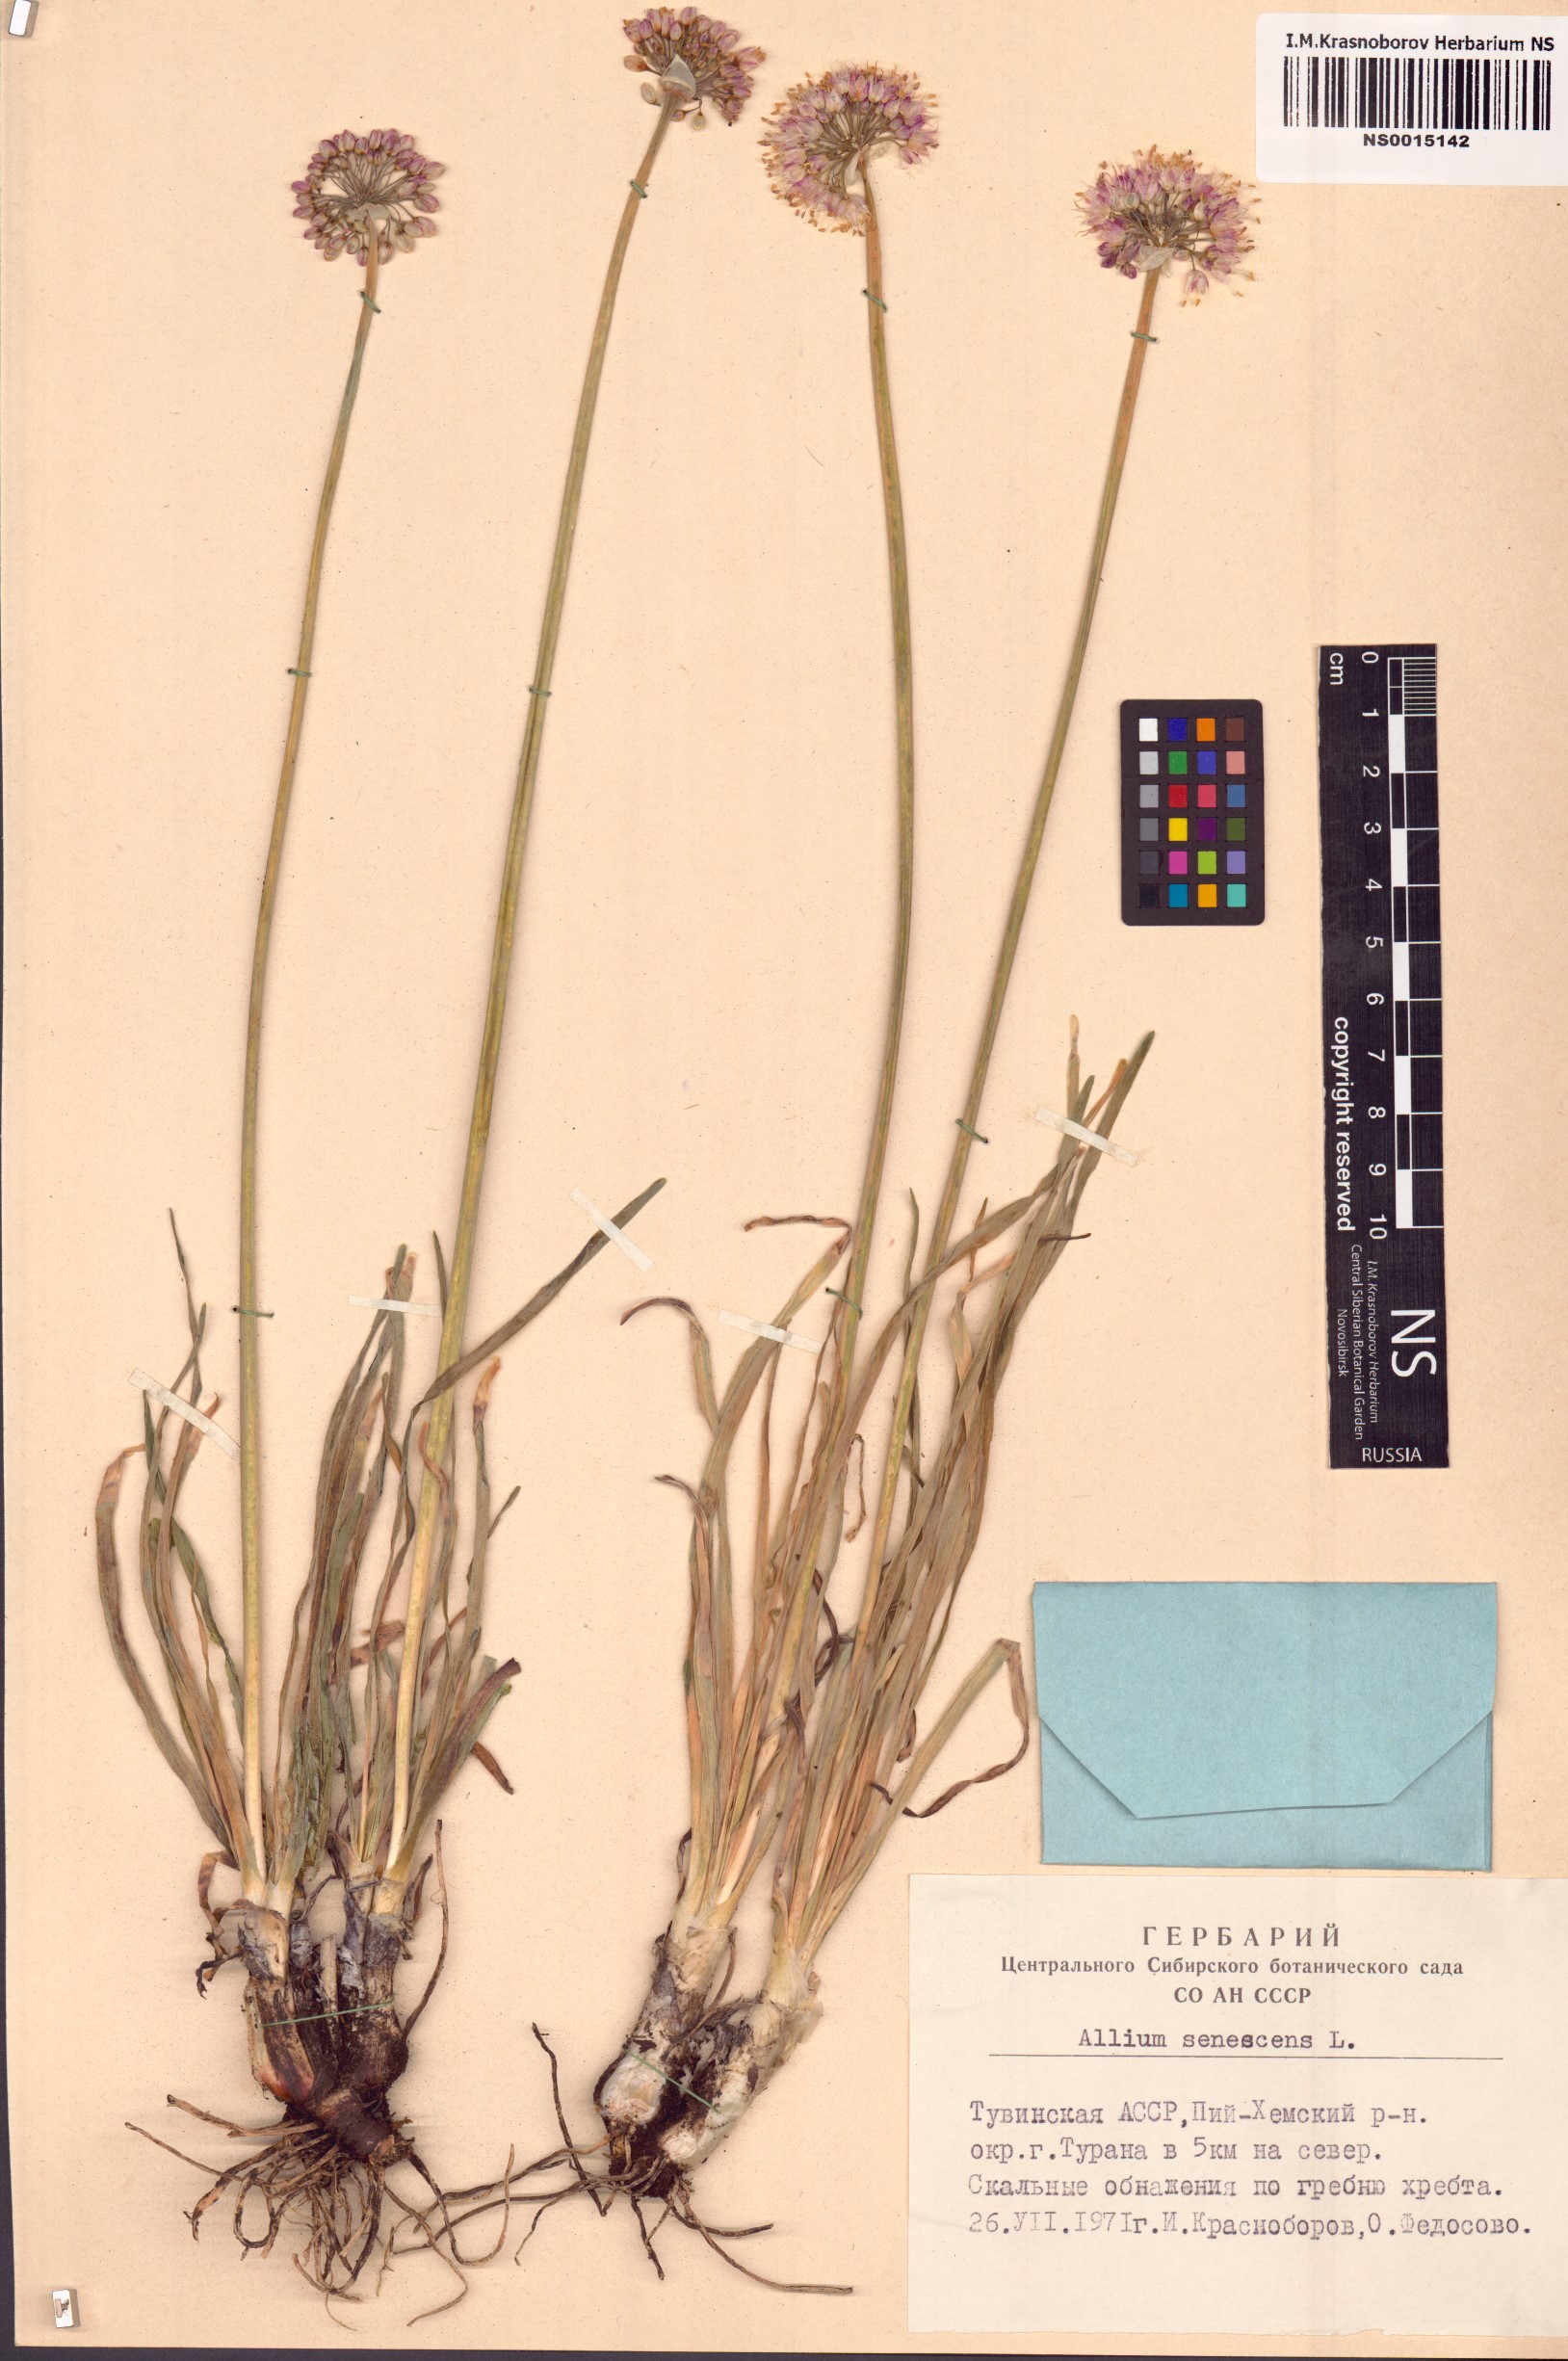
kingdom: Plantae
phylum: Tracheophyta
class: Liliopsida
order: Asparagales
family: Amaryllidaceae
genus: Allium
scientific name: Allium senescens
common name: German garlic
